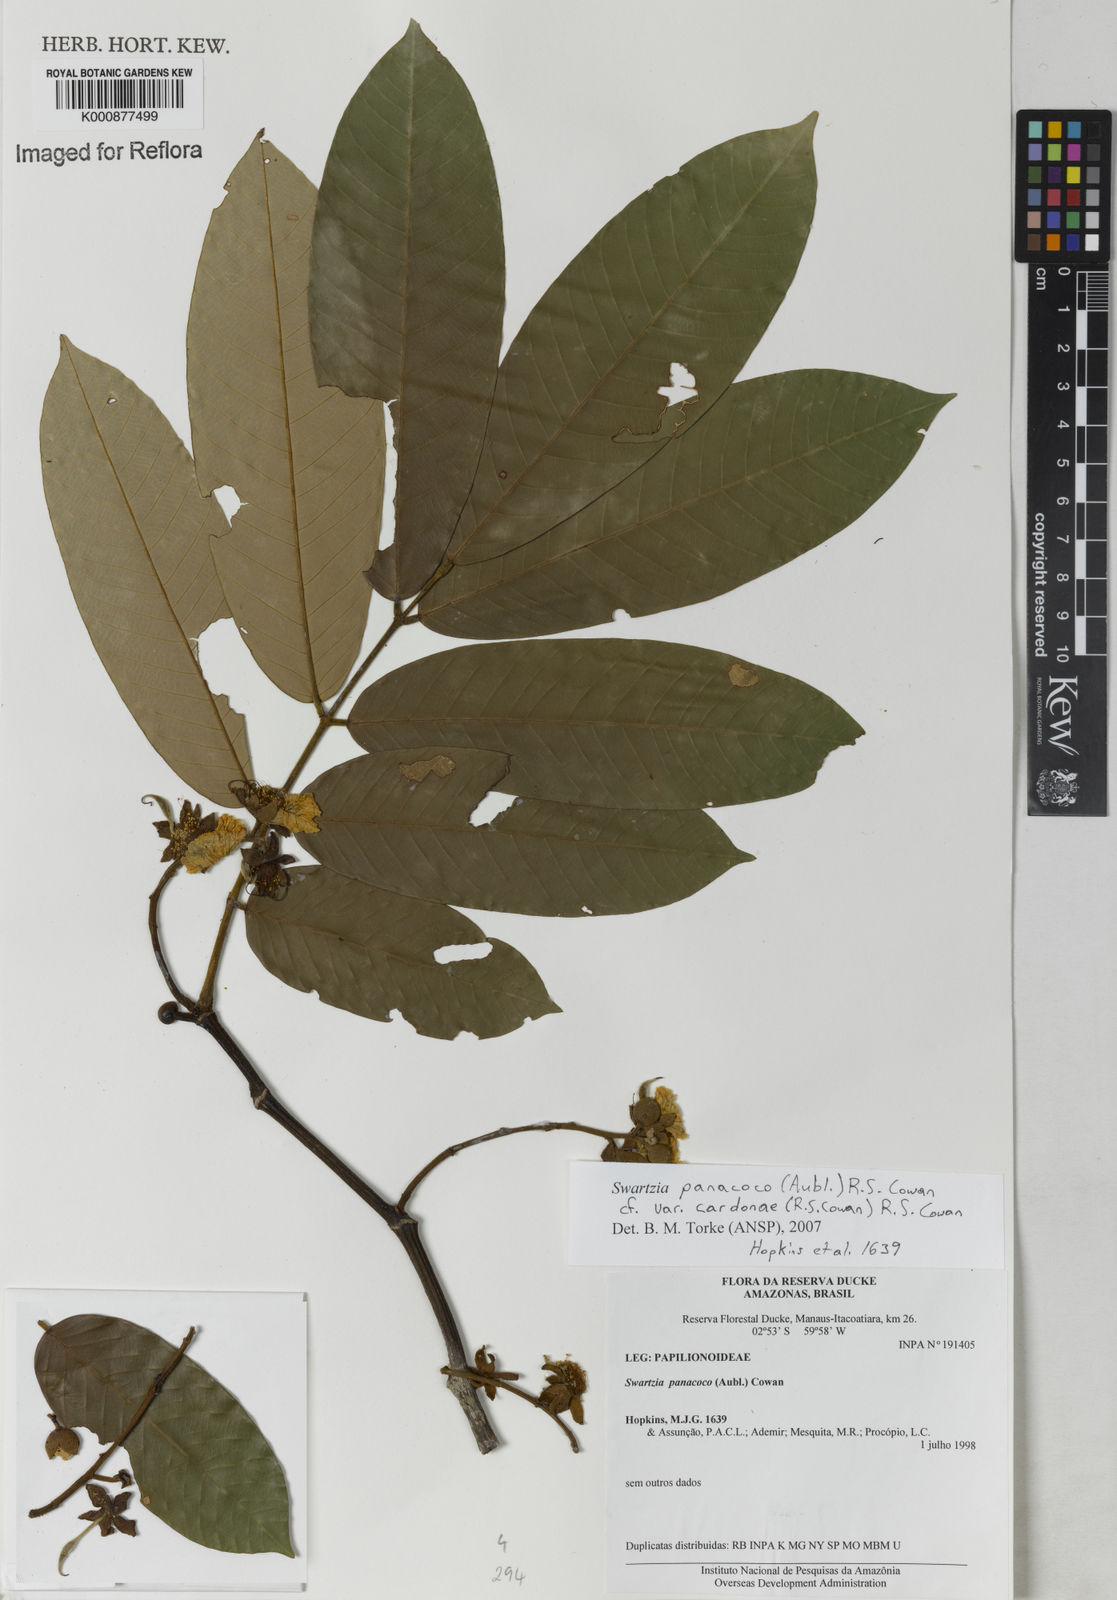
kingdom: Plantae
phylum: Tracheophyta
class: Magnoliopsida
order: Fabales
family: Fabaceae
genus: Swartzia
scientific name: Swartzia panacoco
